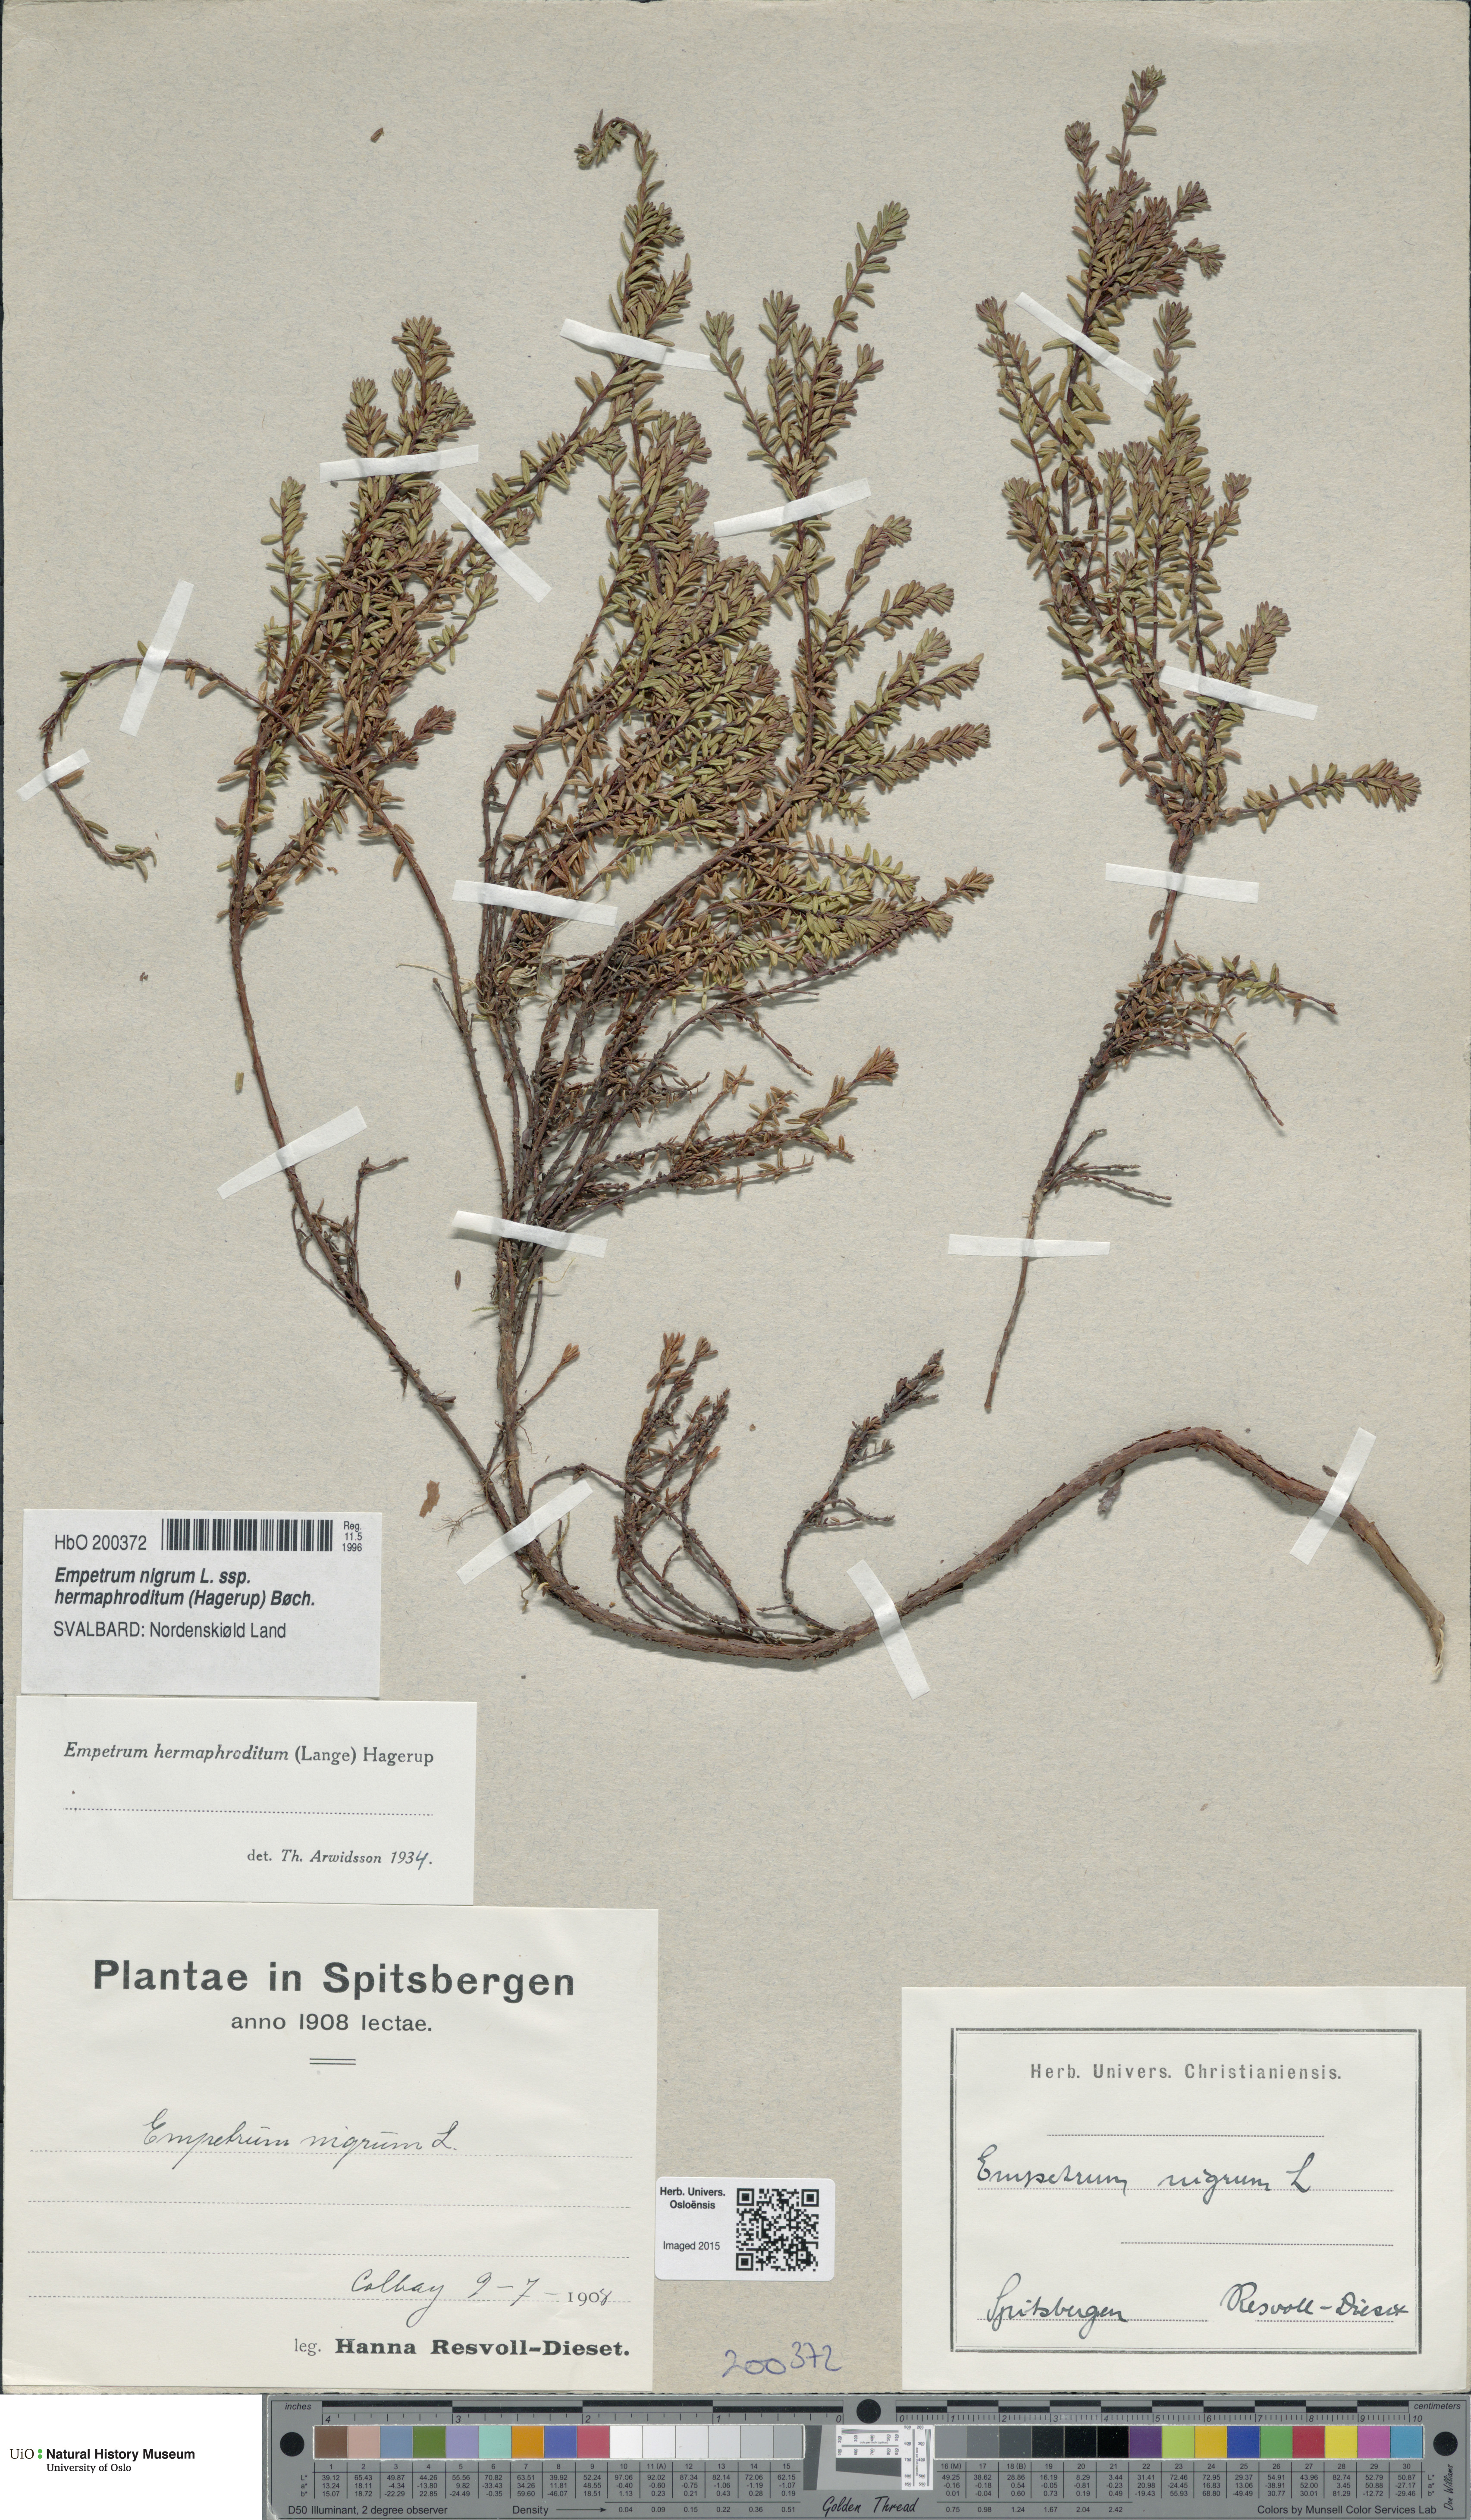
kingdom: Plantae
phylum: Tracheophyta
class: Magnoliopsida
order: Ericales
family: Ericaceae
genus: Empetrum
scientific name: Empetrum hermaphroditum
